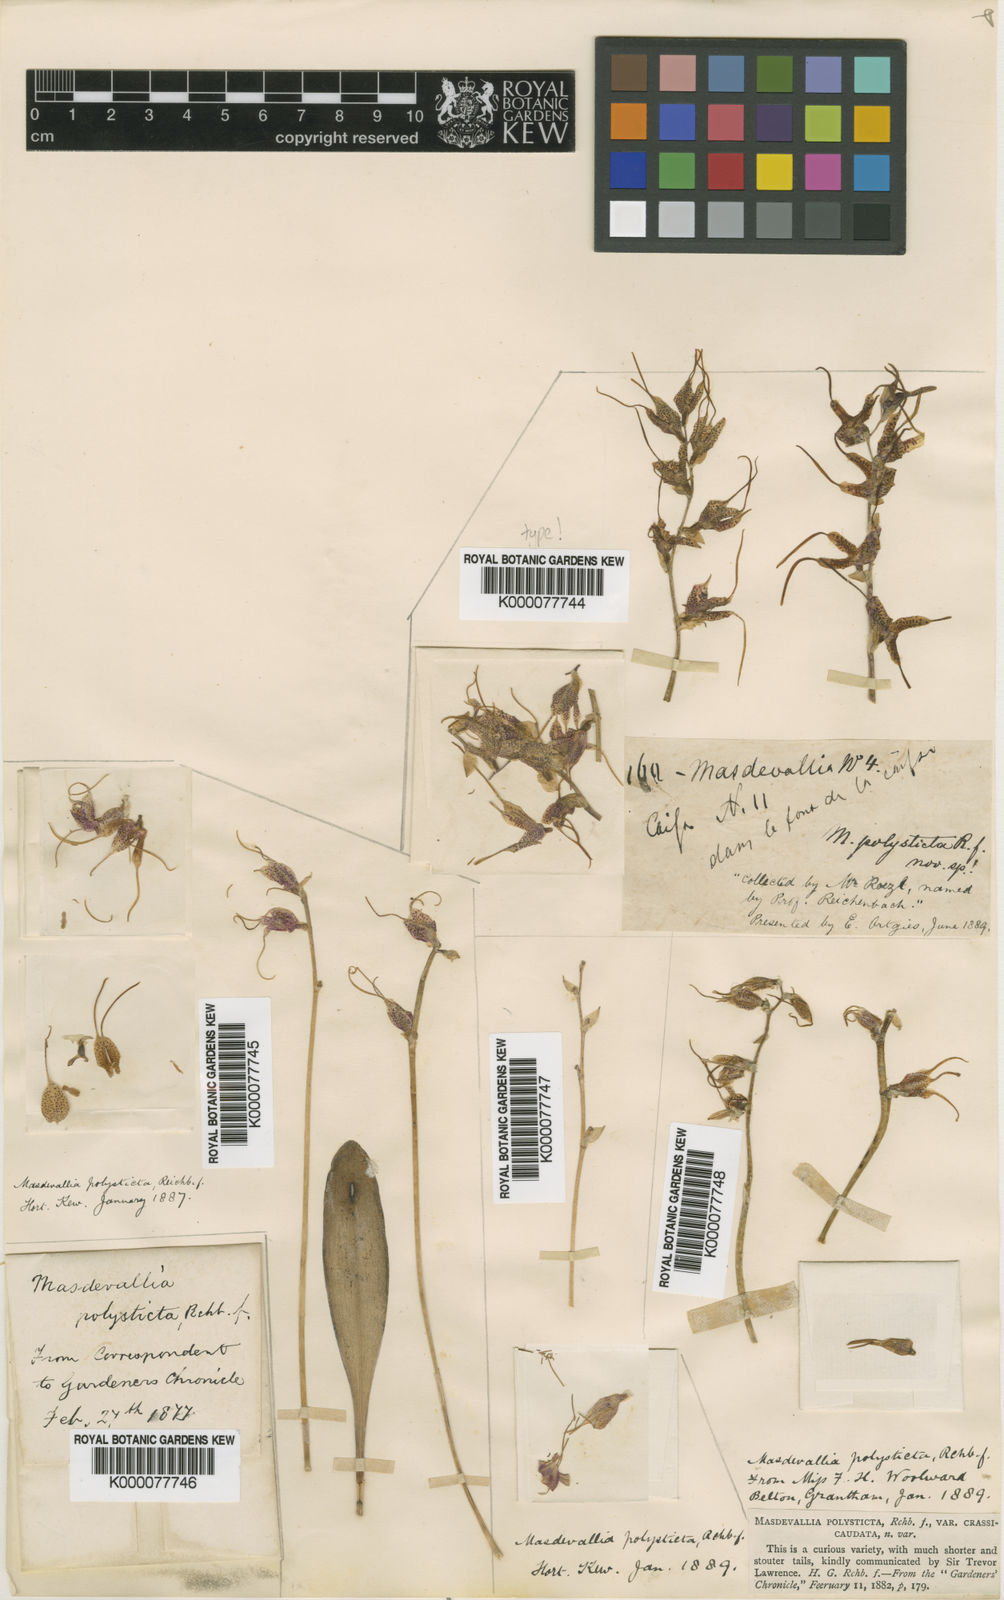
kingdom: Plantae
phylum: Tracheophyta
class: Liliopsida
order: Asparagales
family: Orchidaceae
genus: Masdevallia
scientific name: Masdevallia polysticta
